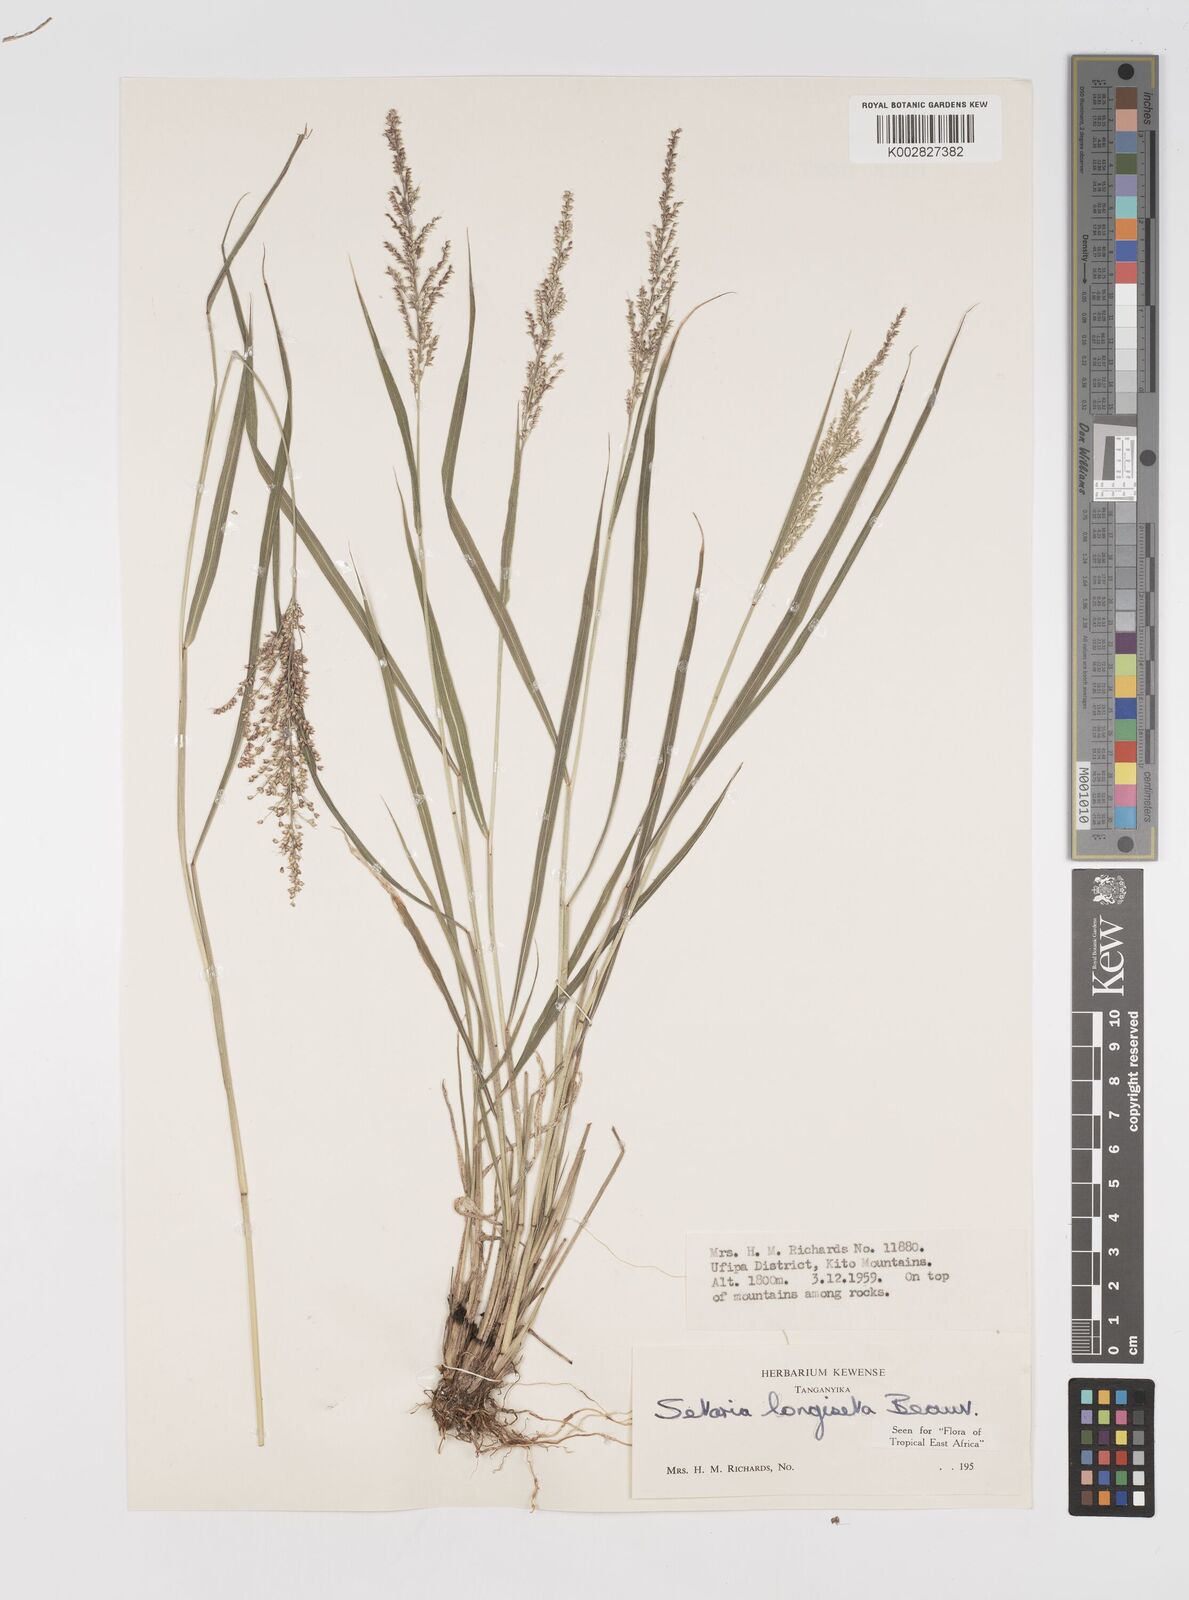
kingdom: Plantae
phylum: Tracheophyta
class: Liliopsida
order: Poales
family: Poaceae
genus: Setaria
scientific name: Setaria longiseta
